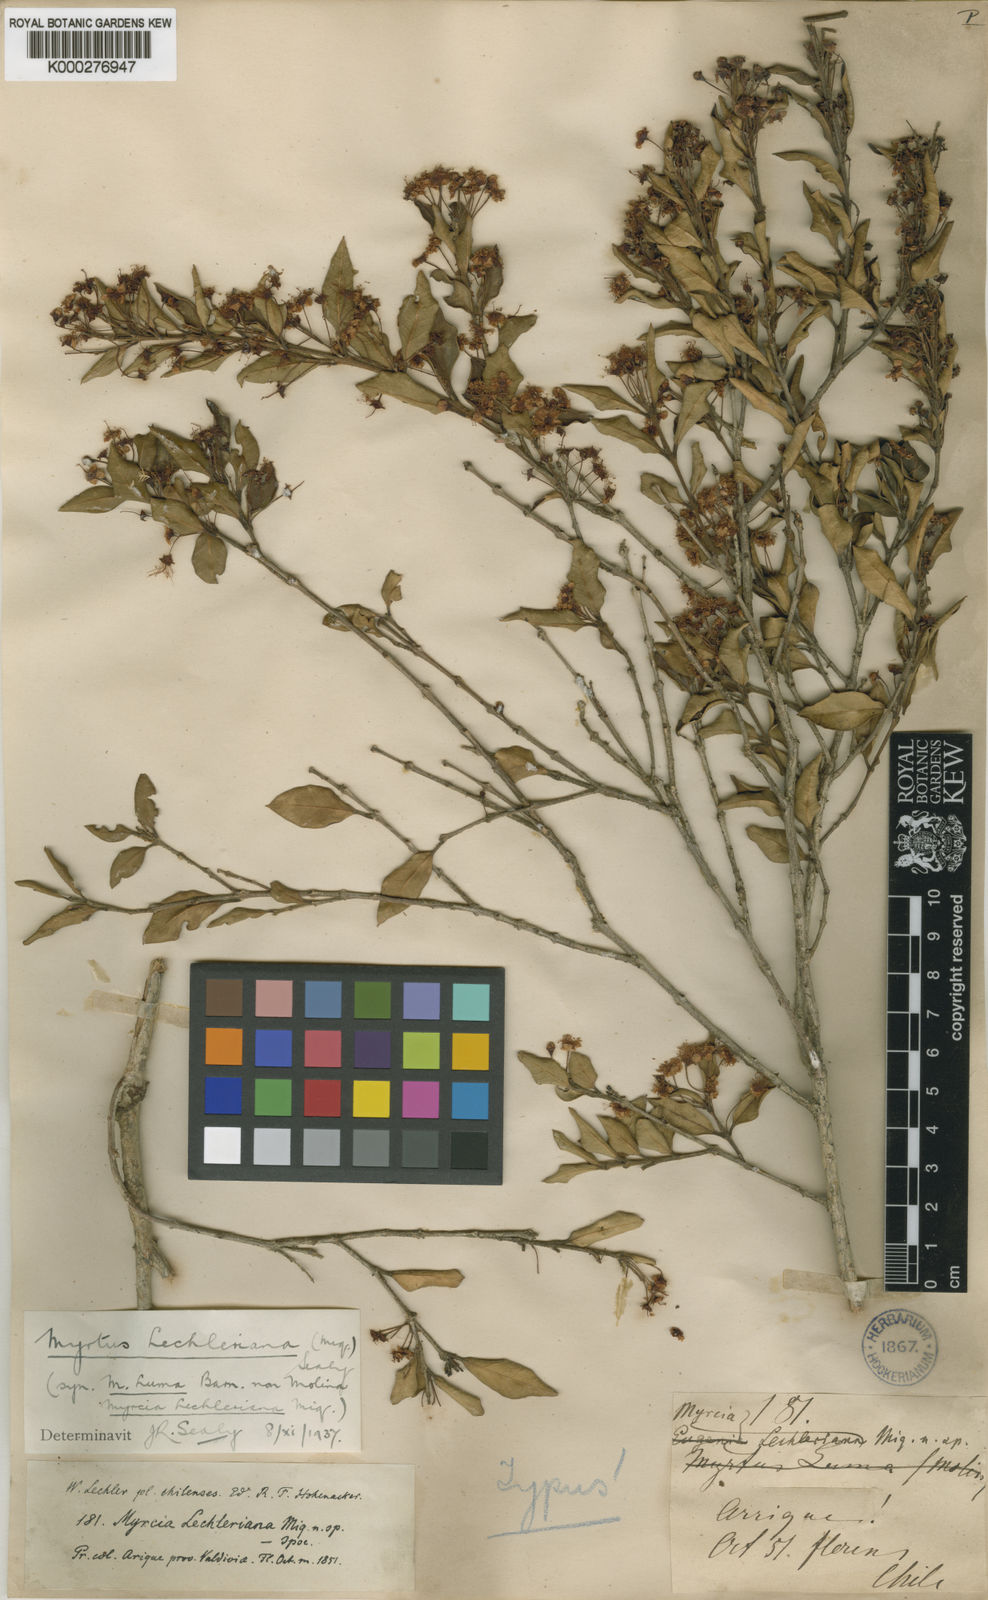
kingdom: Plantae
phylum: Tracheophyta
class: Magnoliopsida
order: Myrtales
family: Myrtaceae
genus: Amomyrtus
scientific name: Amomyrtus luma
